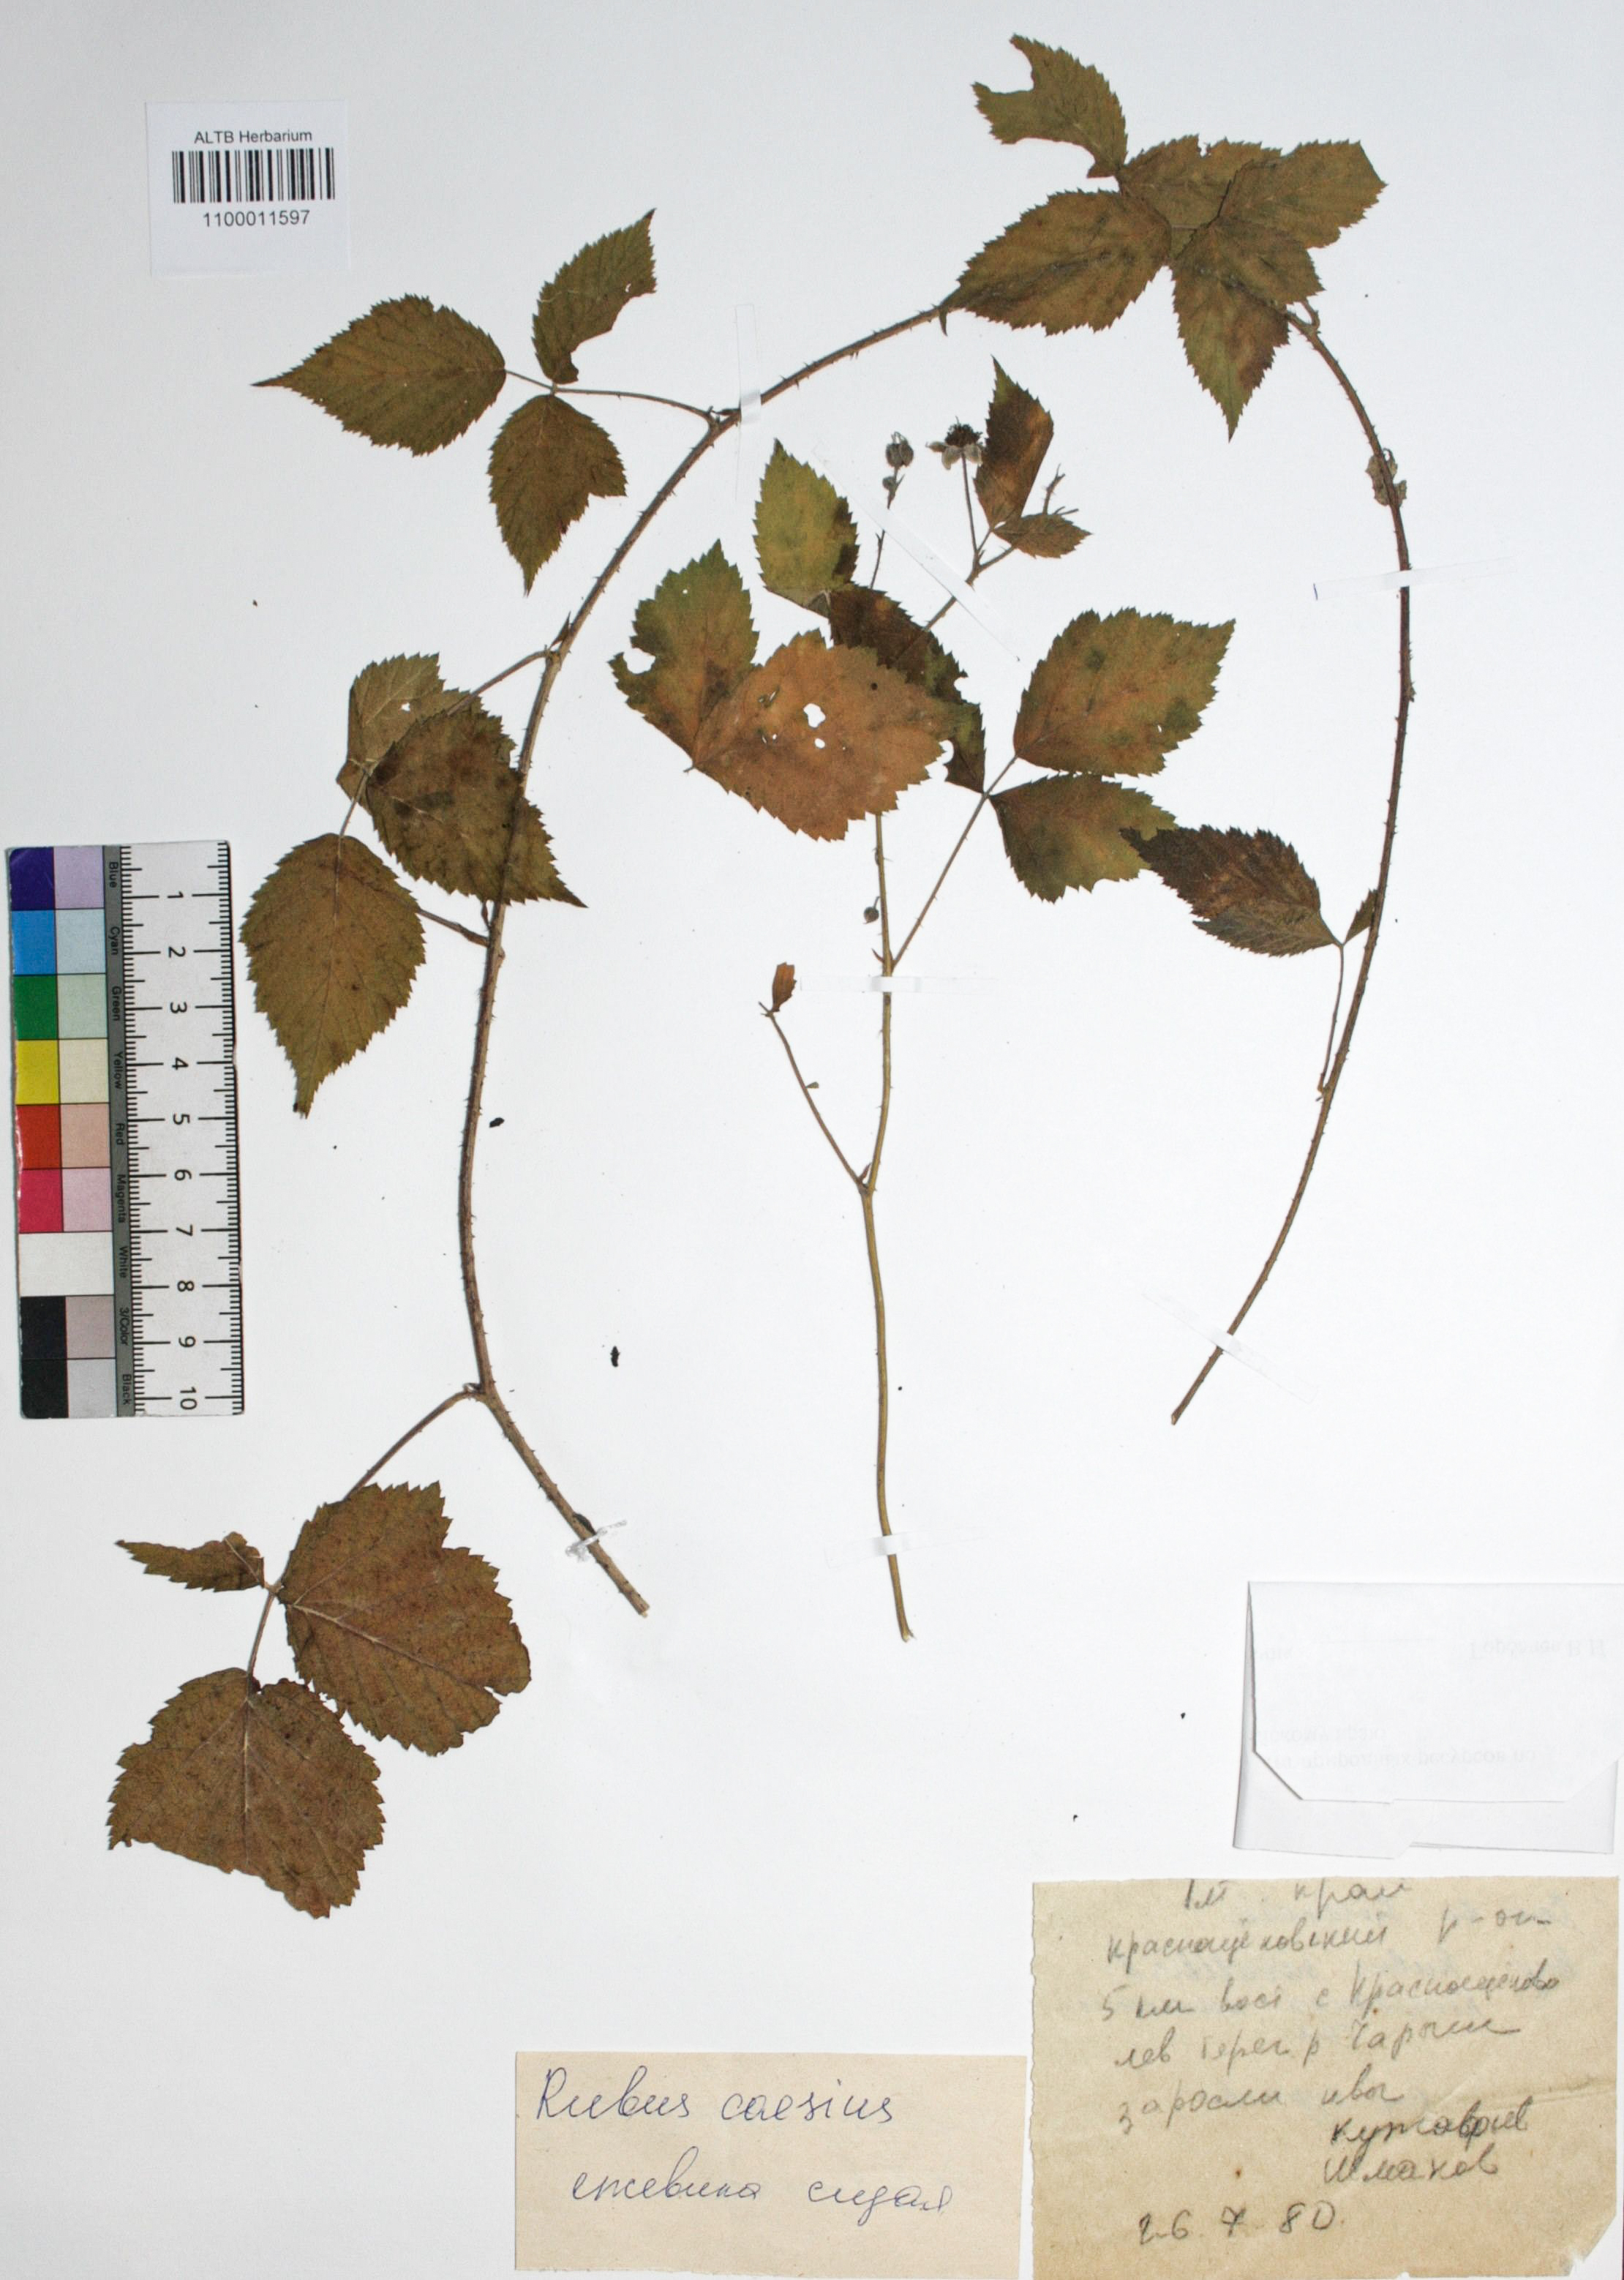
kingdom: Plantae
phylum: Tracheophyta
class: Magnoliopsida
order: Rosales
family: Rosaceae
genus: Rubus
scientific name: Rubus caesius
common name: Dewberry
